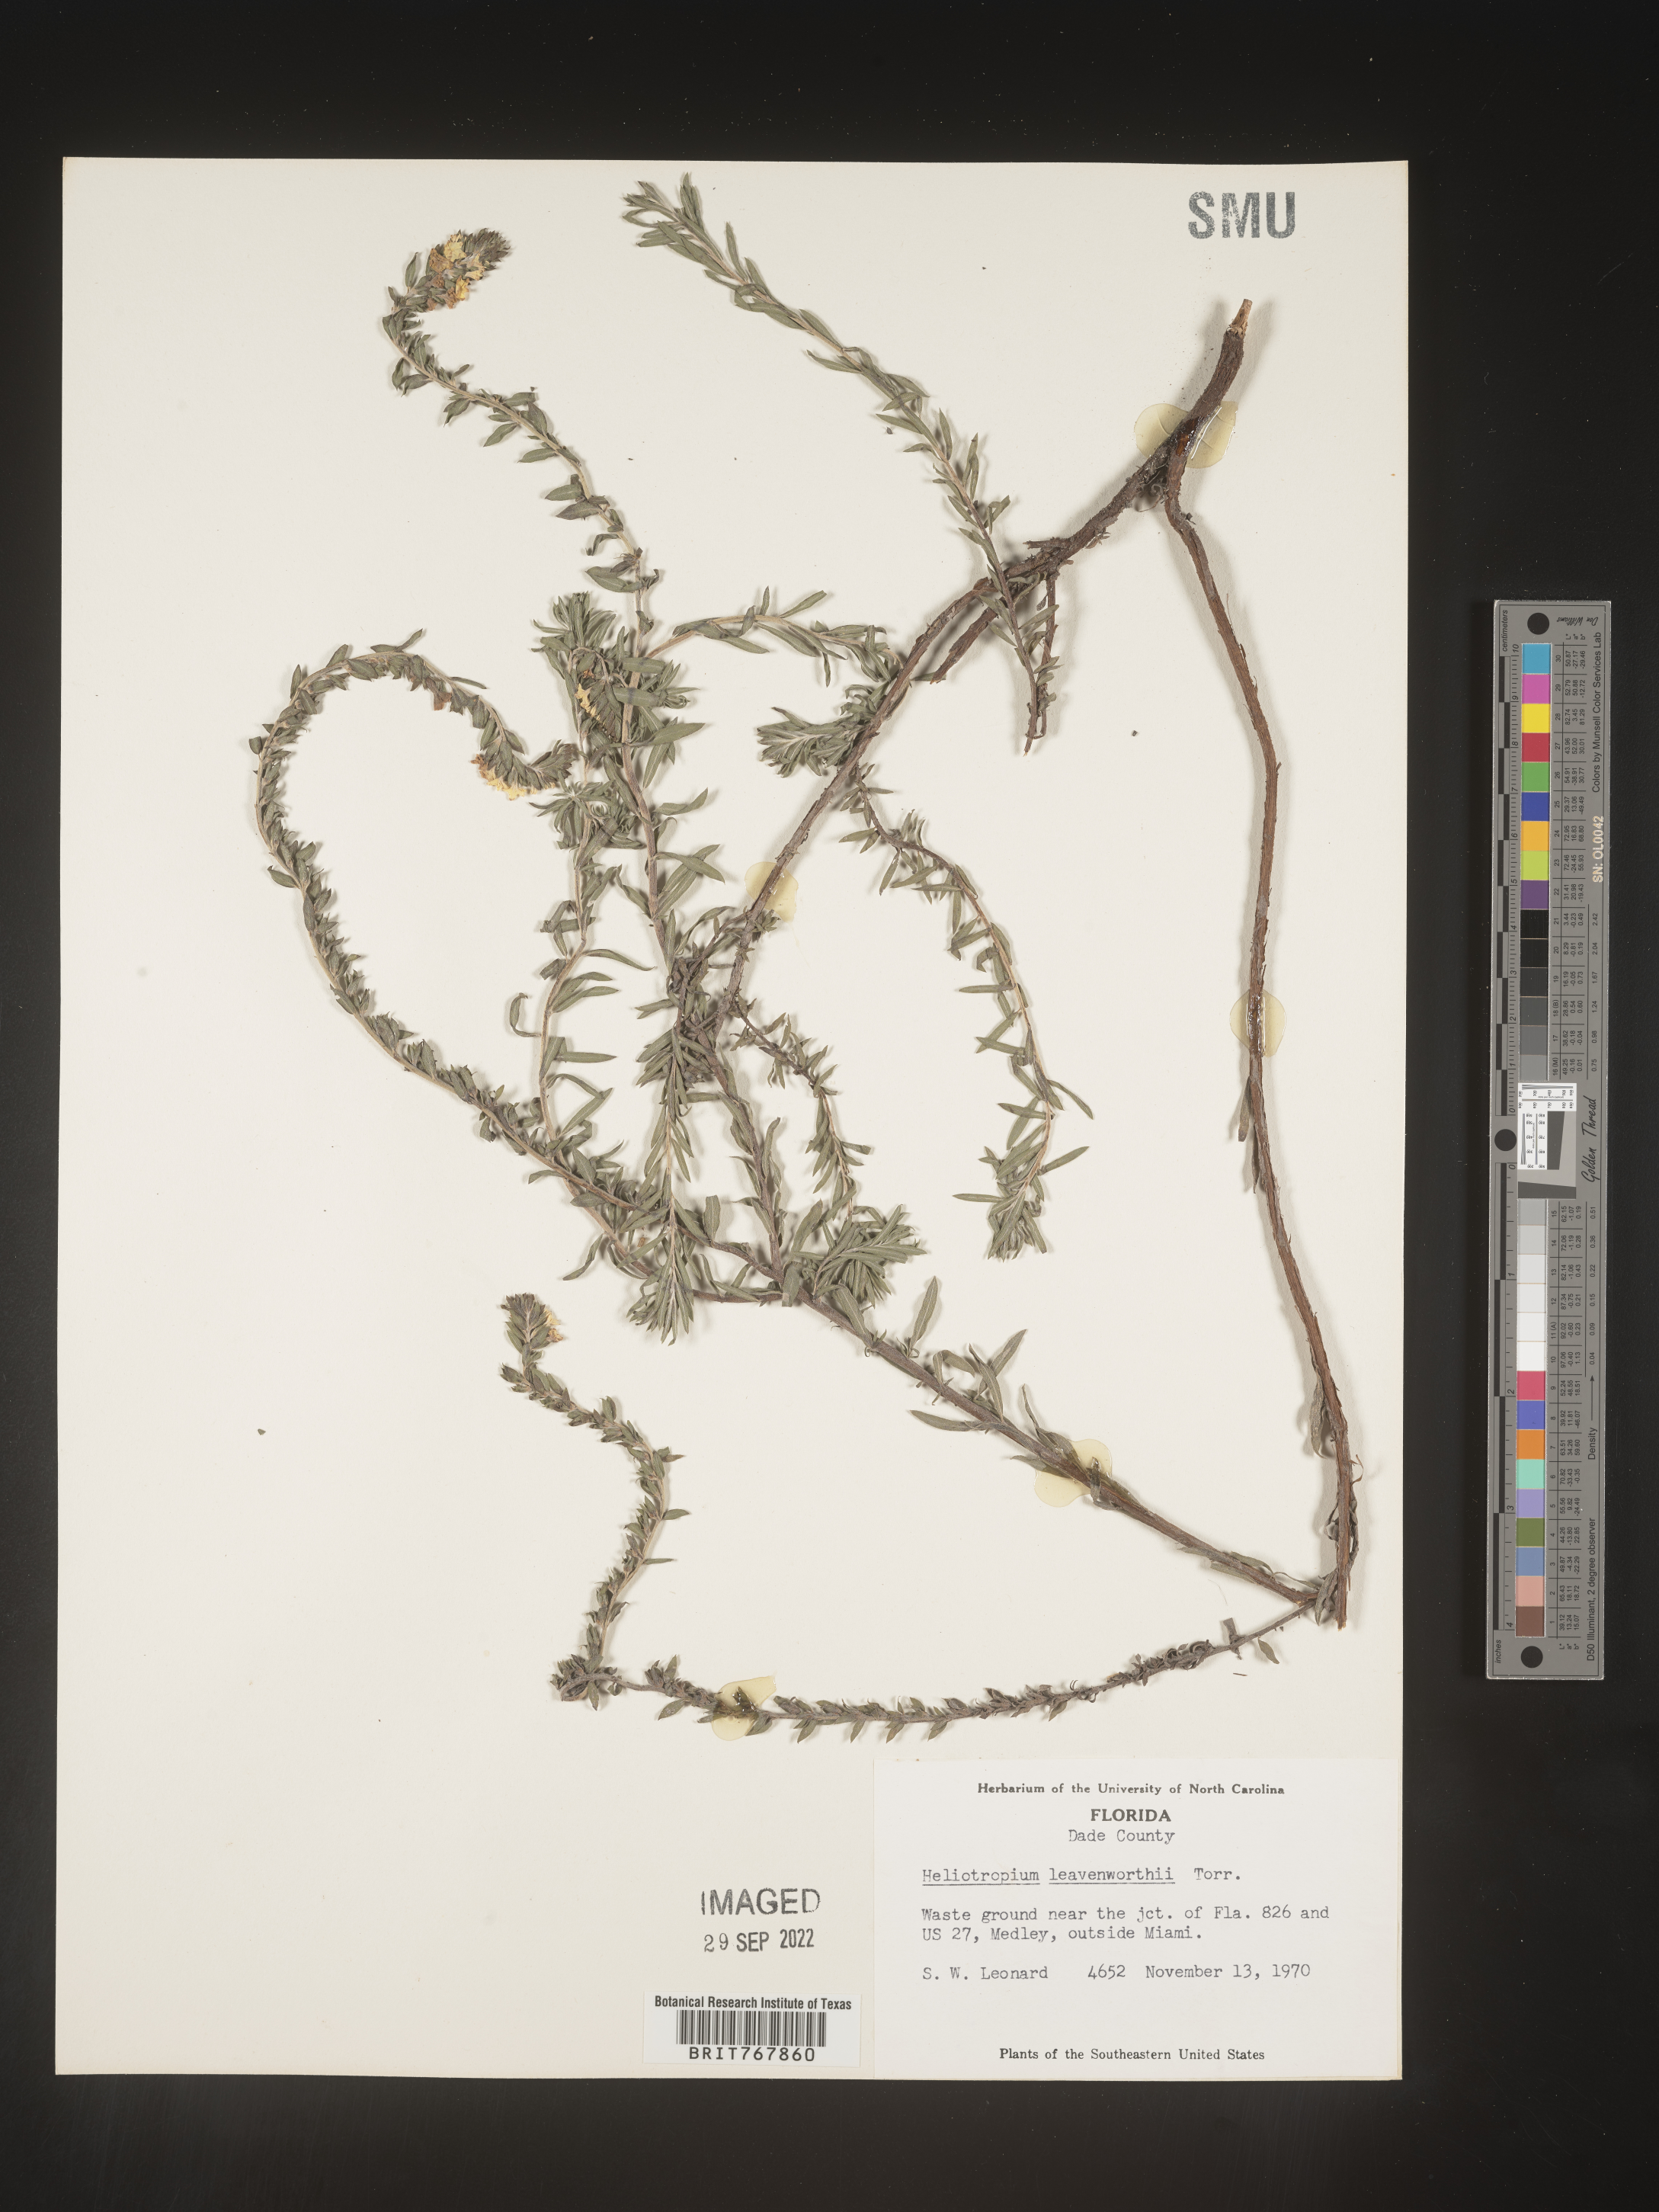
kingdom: Plantae
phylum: Tracheophyta
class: Magnoliopsida
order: Boraginales
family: Heliotropiaceae
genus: Heliotropium
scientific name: Heliotropium leavenworthii
